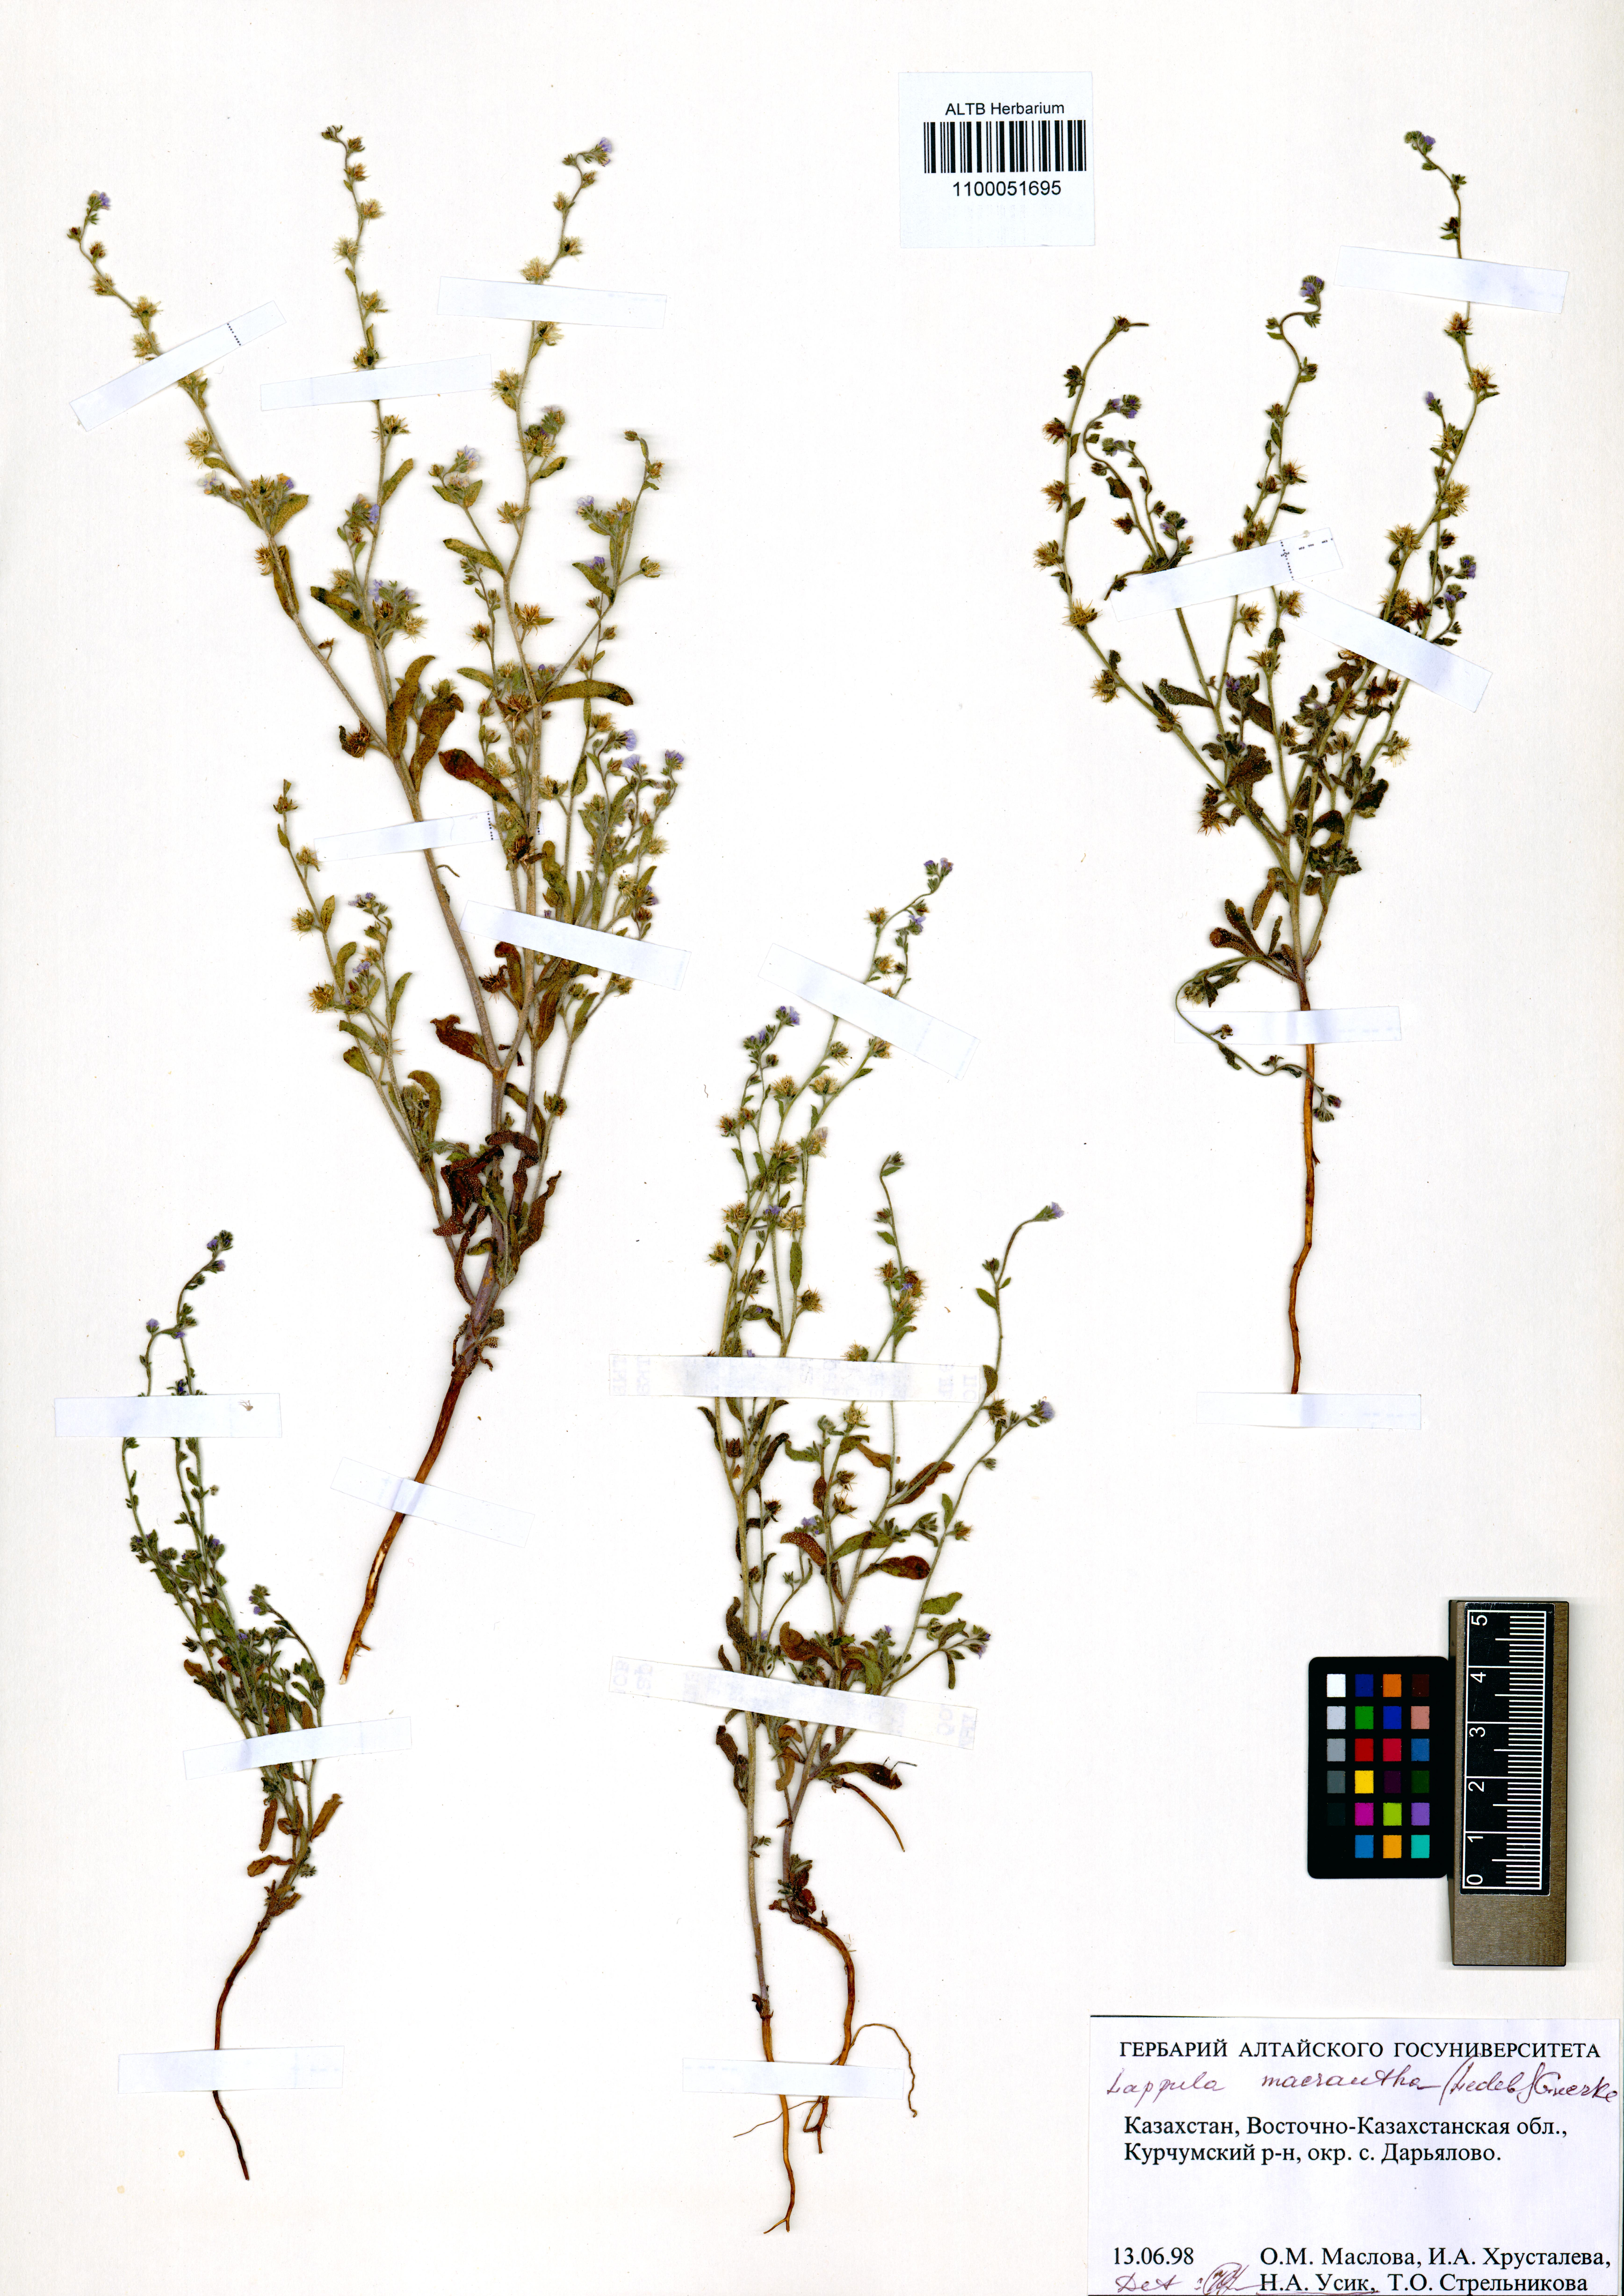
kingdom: Plantae
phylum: Tracheophyta
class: Magnoliopsida
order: Boraginales
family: Boraginaceae
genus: Lappula
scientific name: Lappula macrantha
